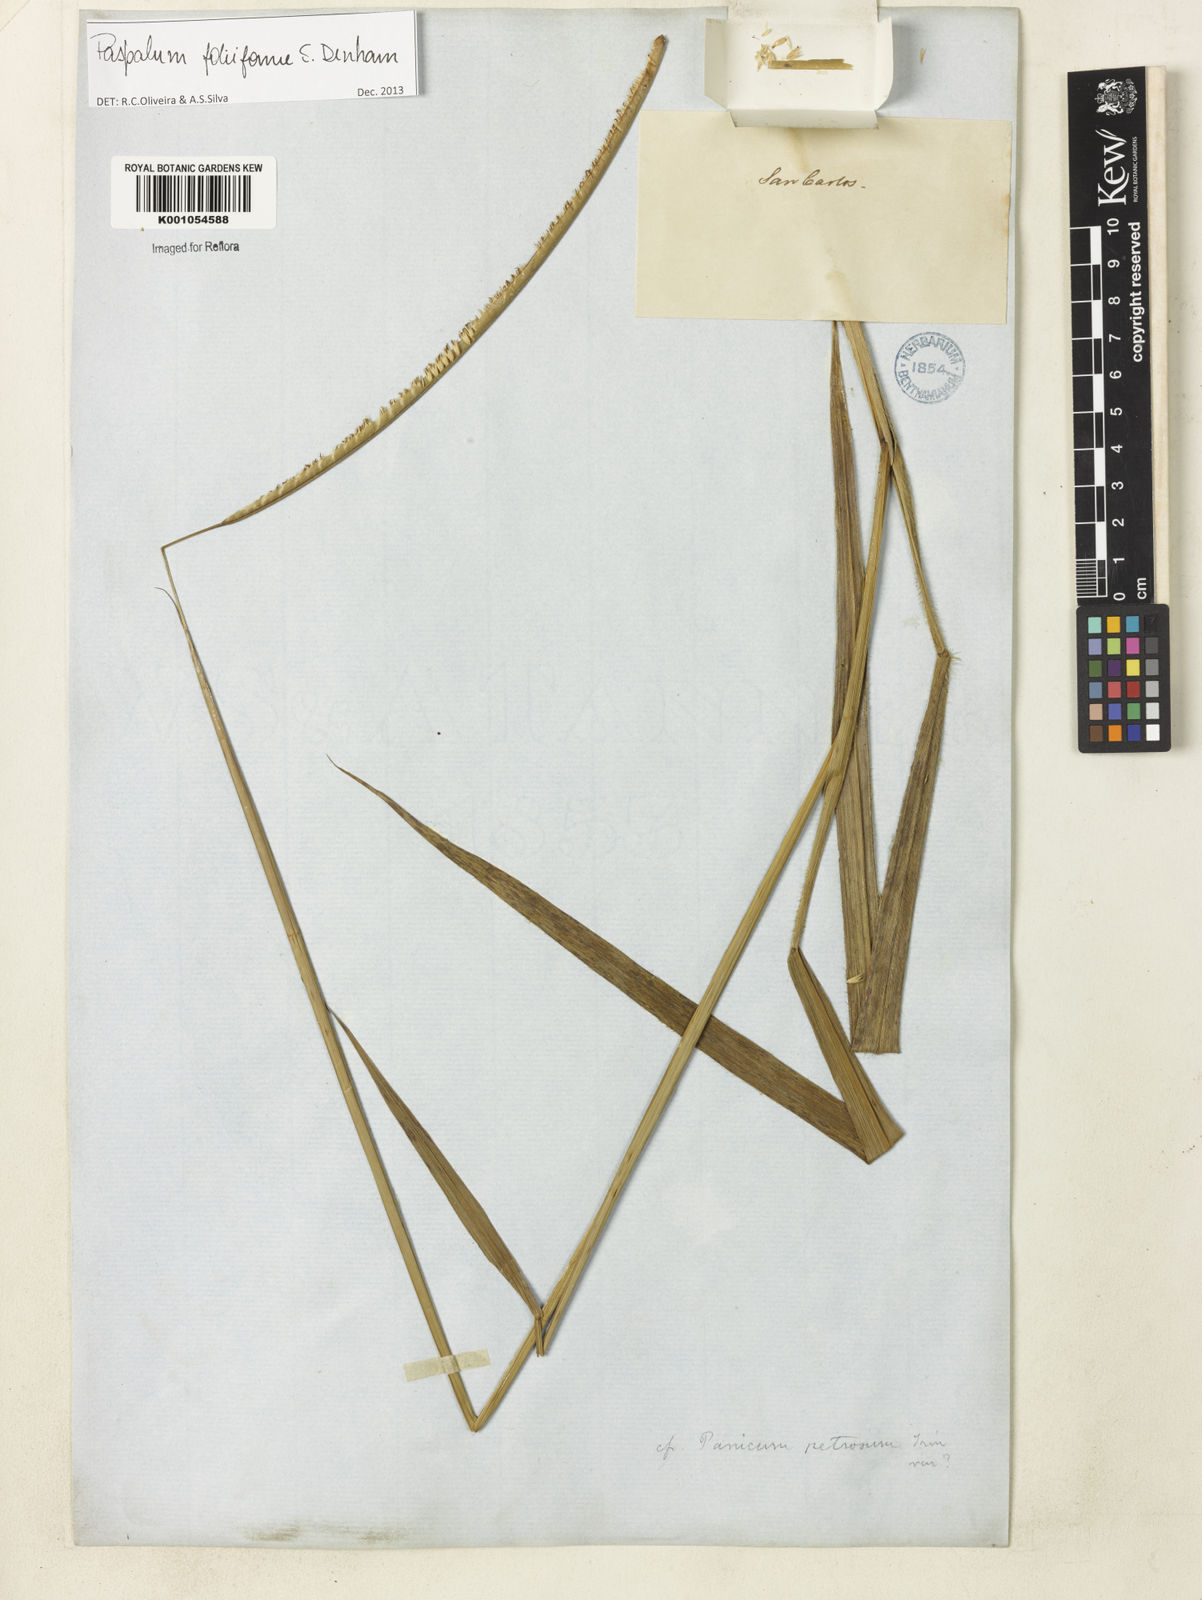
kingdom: Plantae
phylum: Tracheophyta
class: Liliopsida
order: Poales
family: Poaceae
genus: Paspalum
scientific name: Paspalum foliiforme
